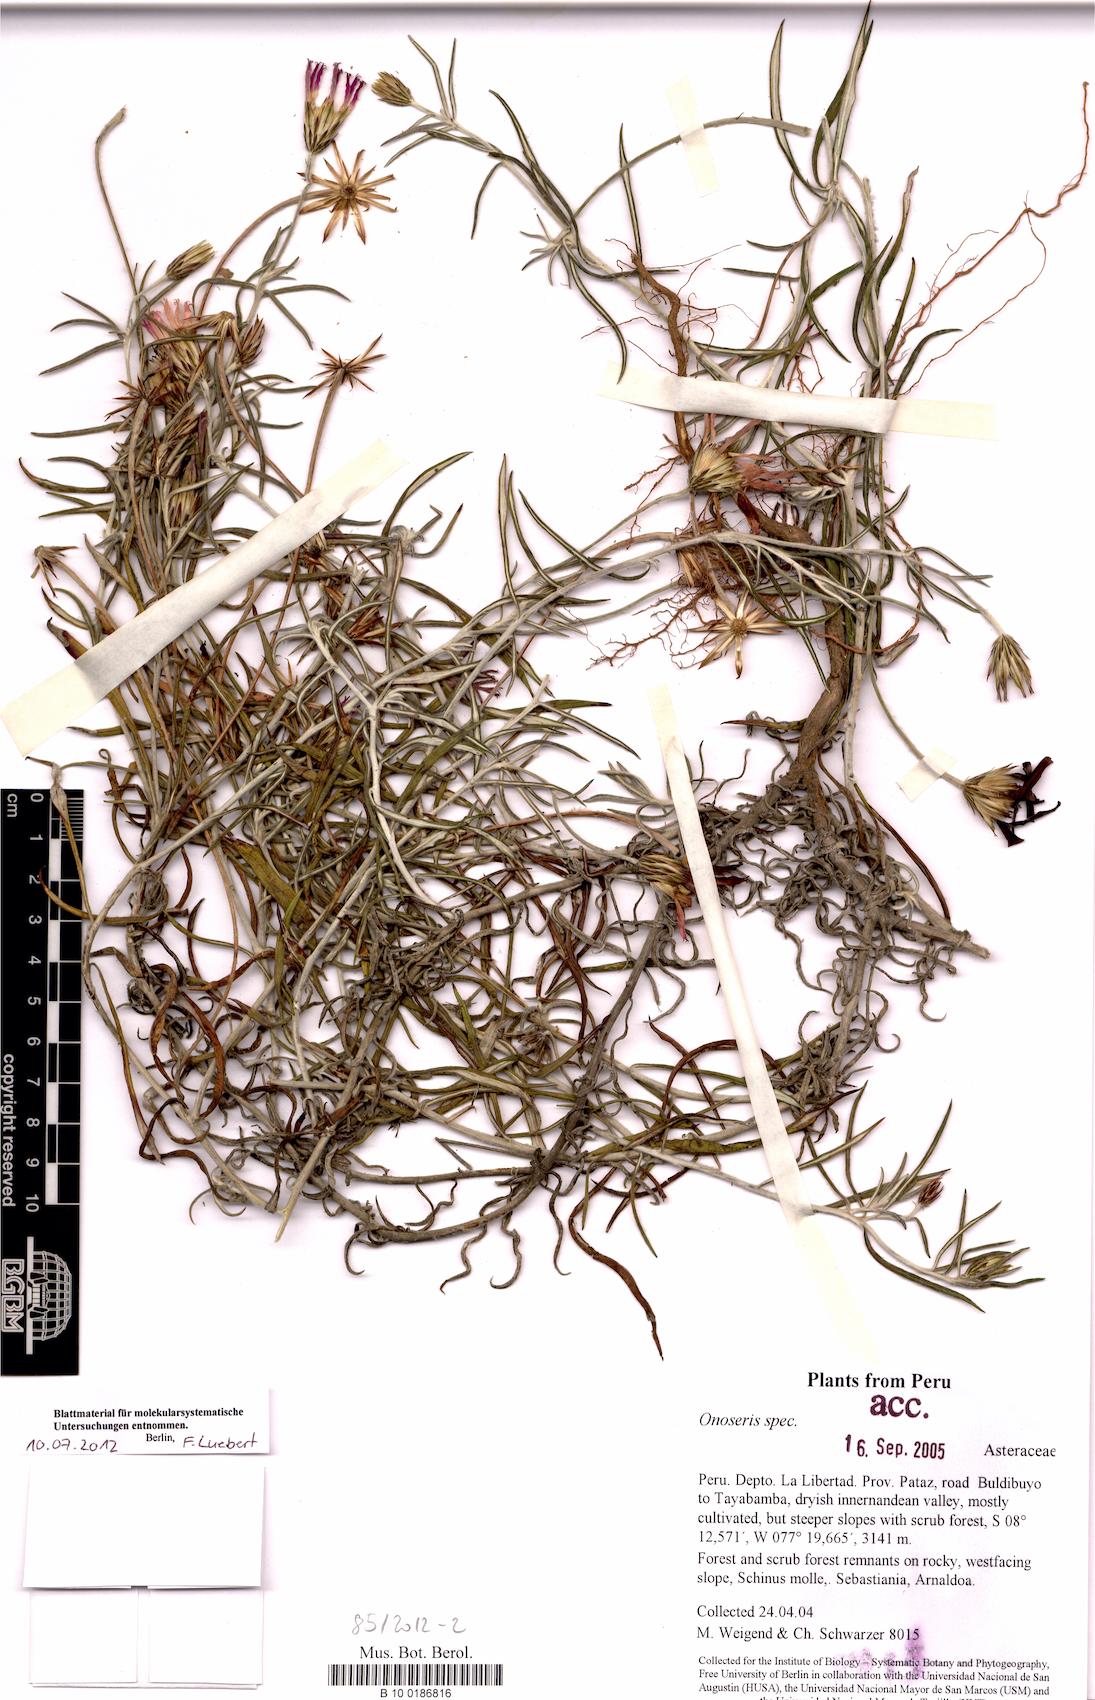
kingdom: Plantae
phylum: Tracheophyta
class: Magnoliopsida
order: Asterales
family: Asteraceae
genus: Onoseris
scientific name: Onoseris gnaphalioides
